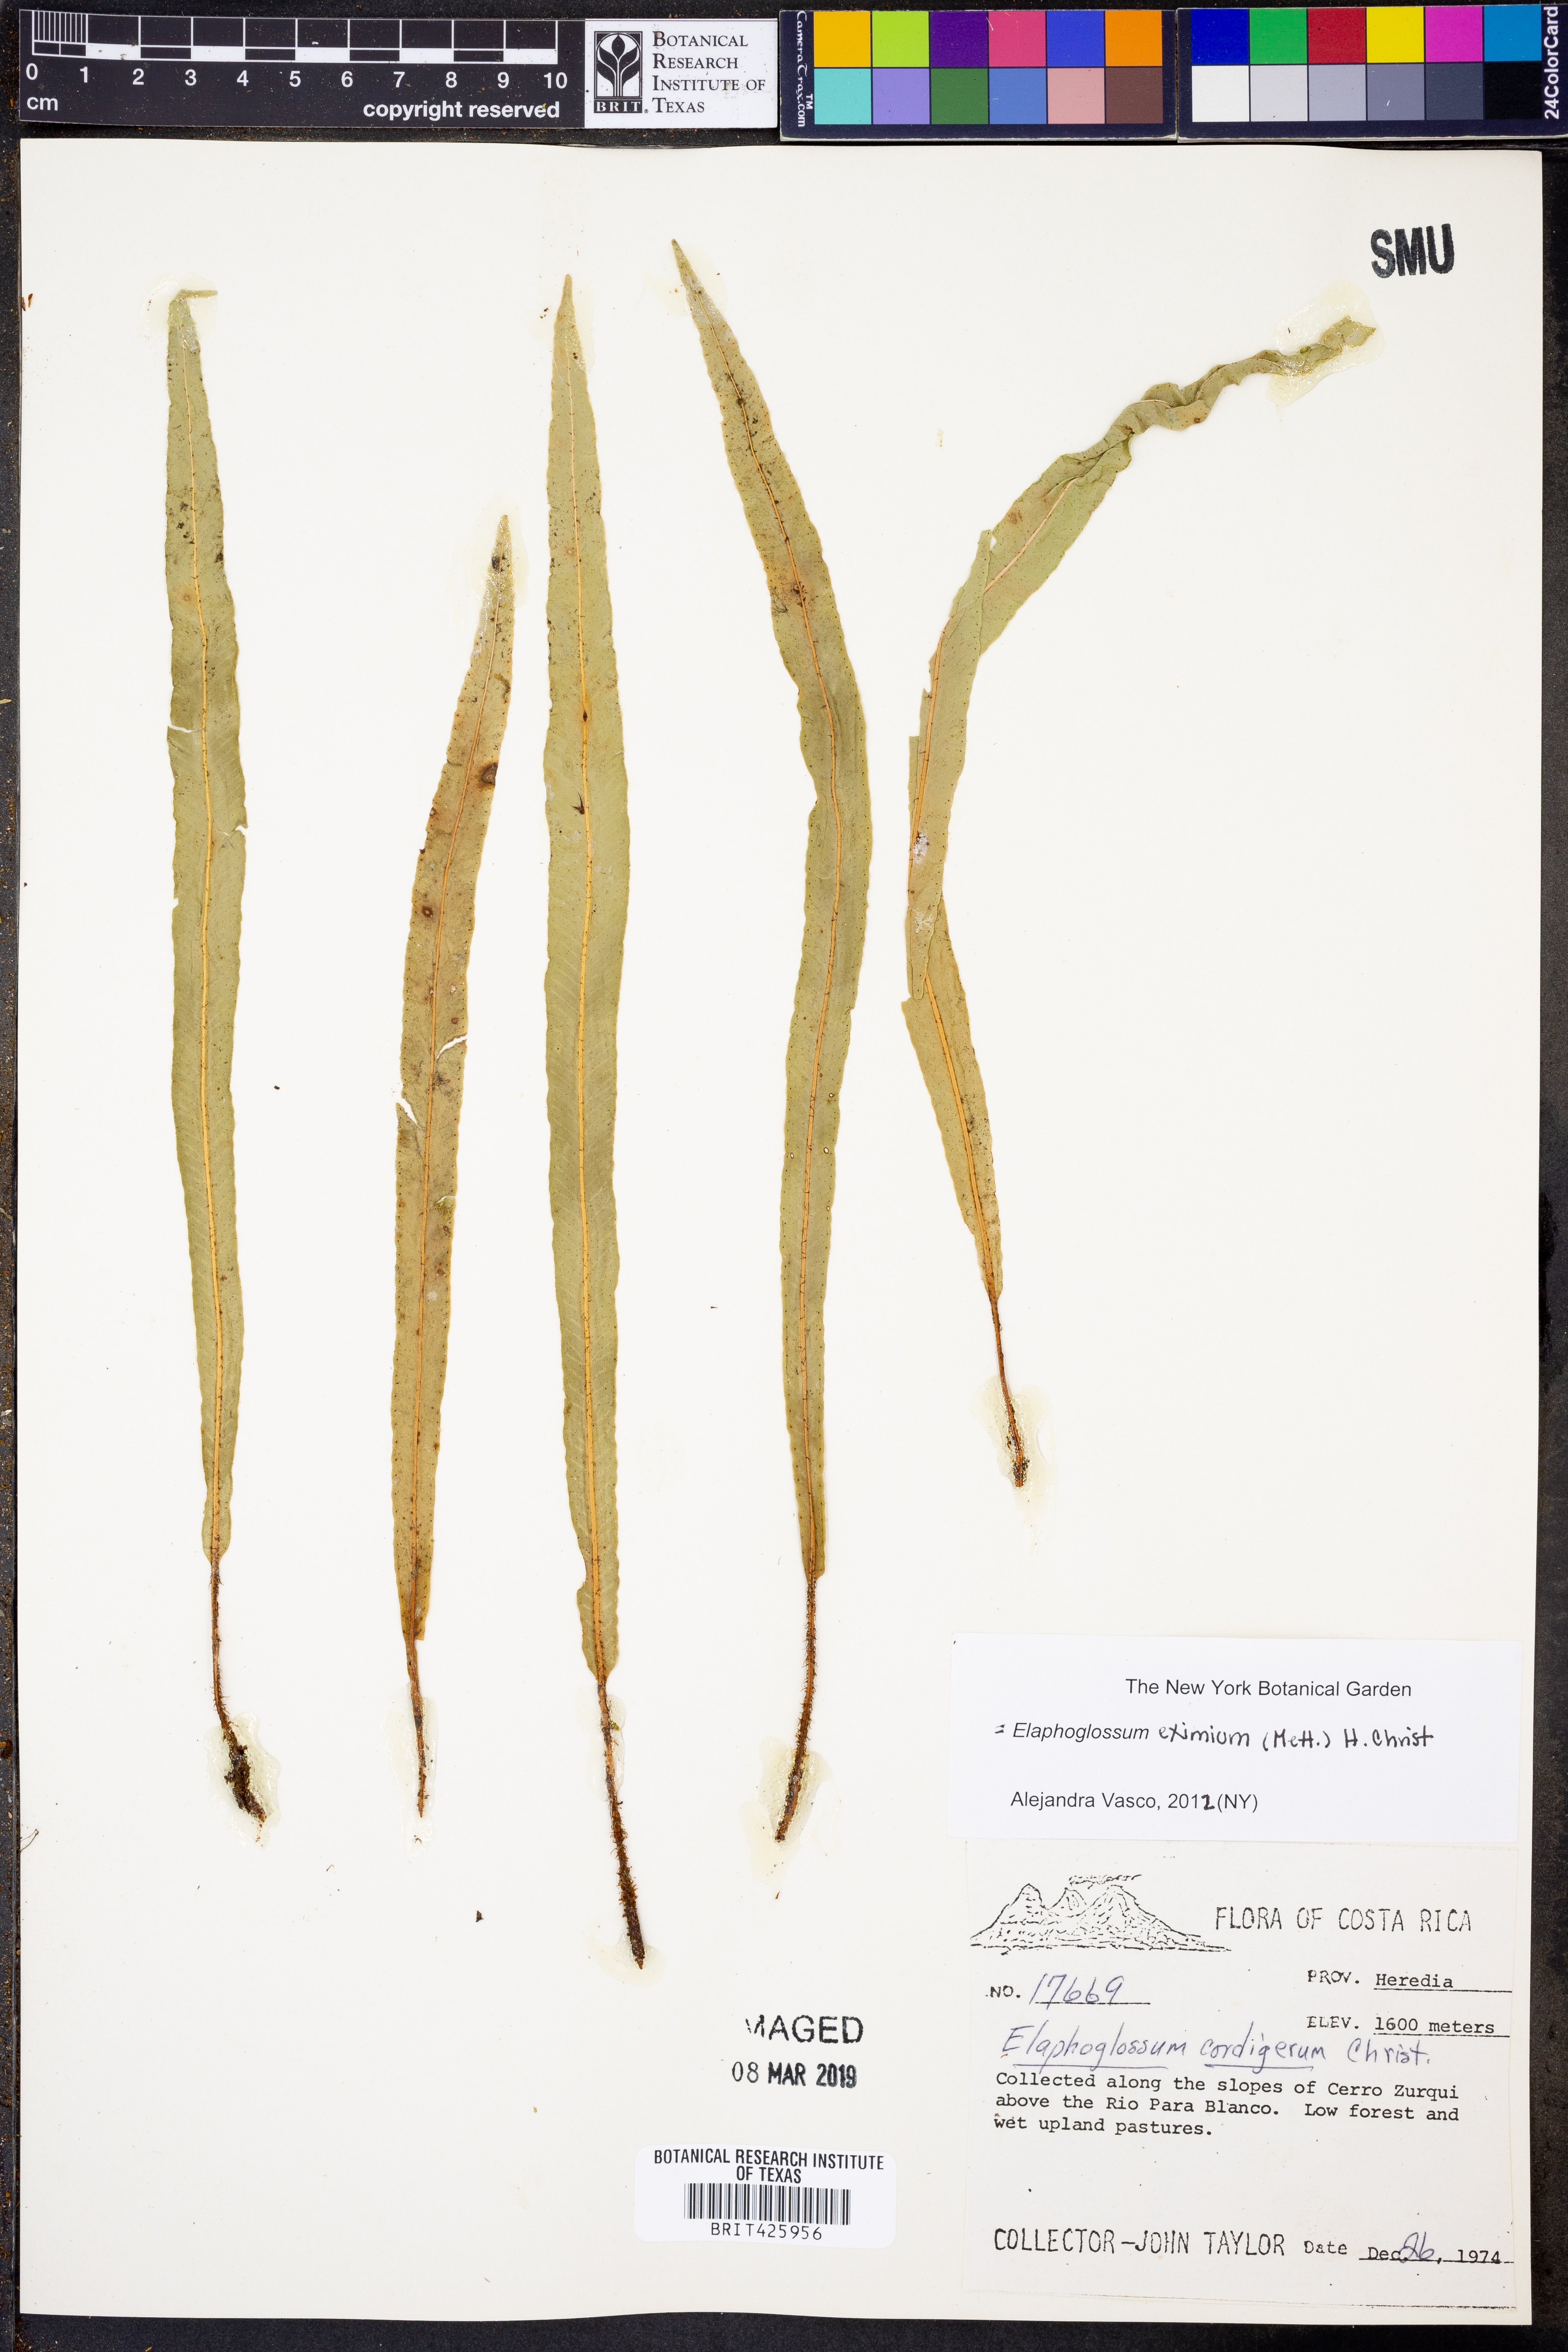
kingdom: Plantae
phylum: Tracheophyta
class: Polypodiopsida
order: Polypodiales
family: Dryopteridaceae
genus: Elaphoglossum
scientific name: Elaphoglossum eximium
